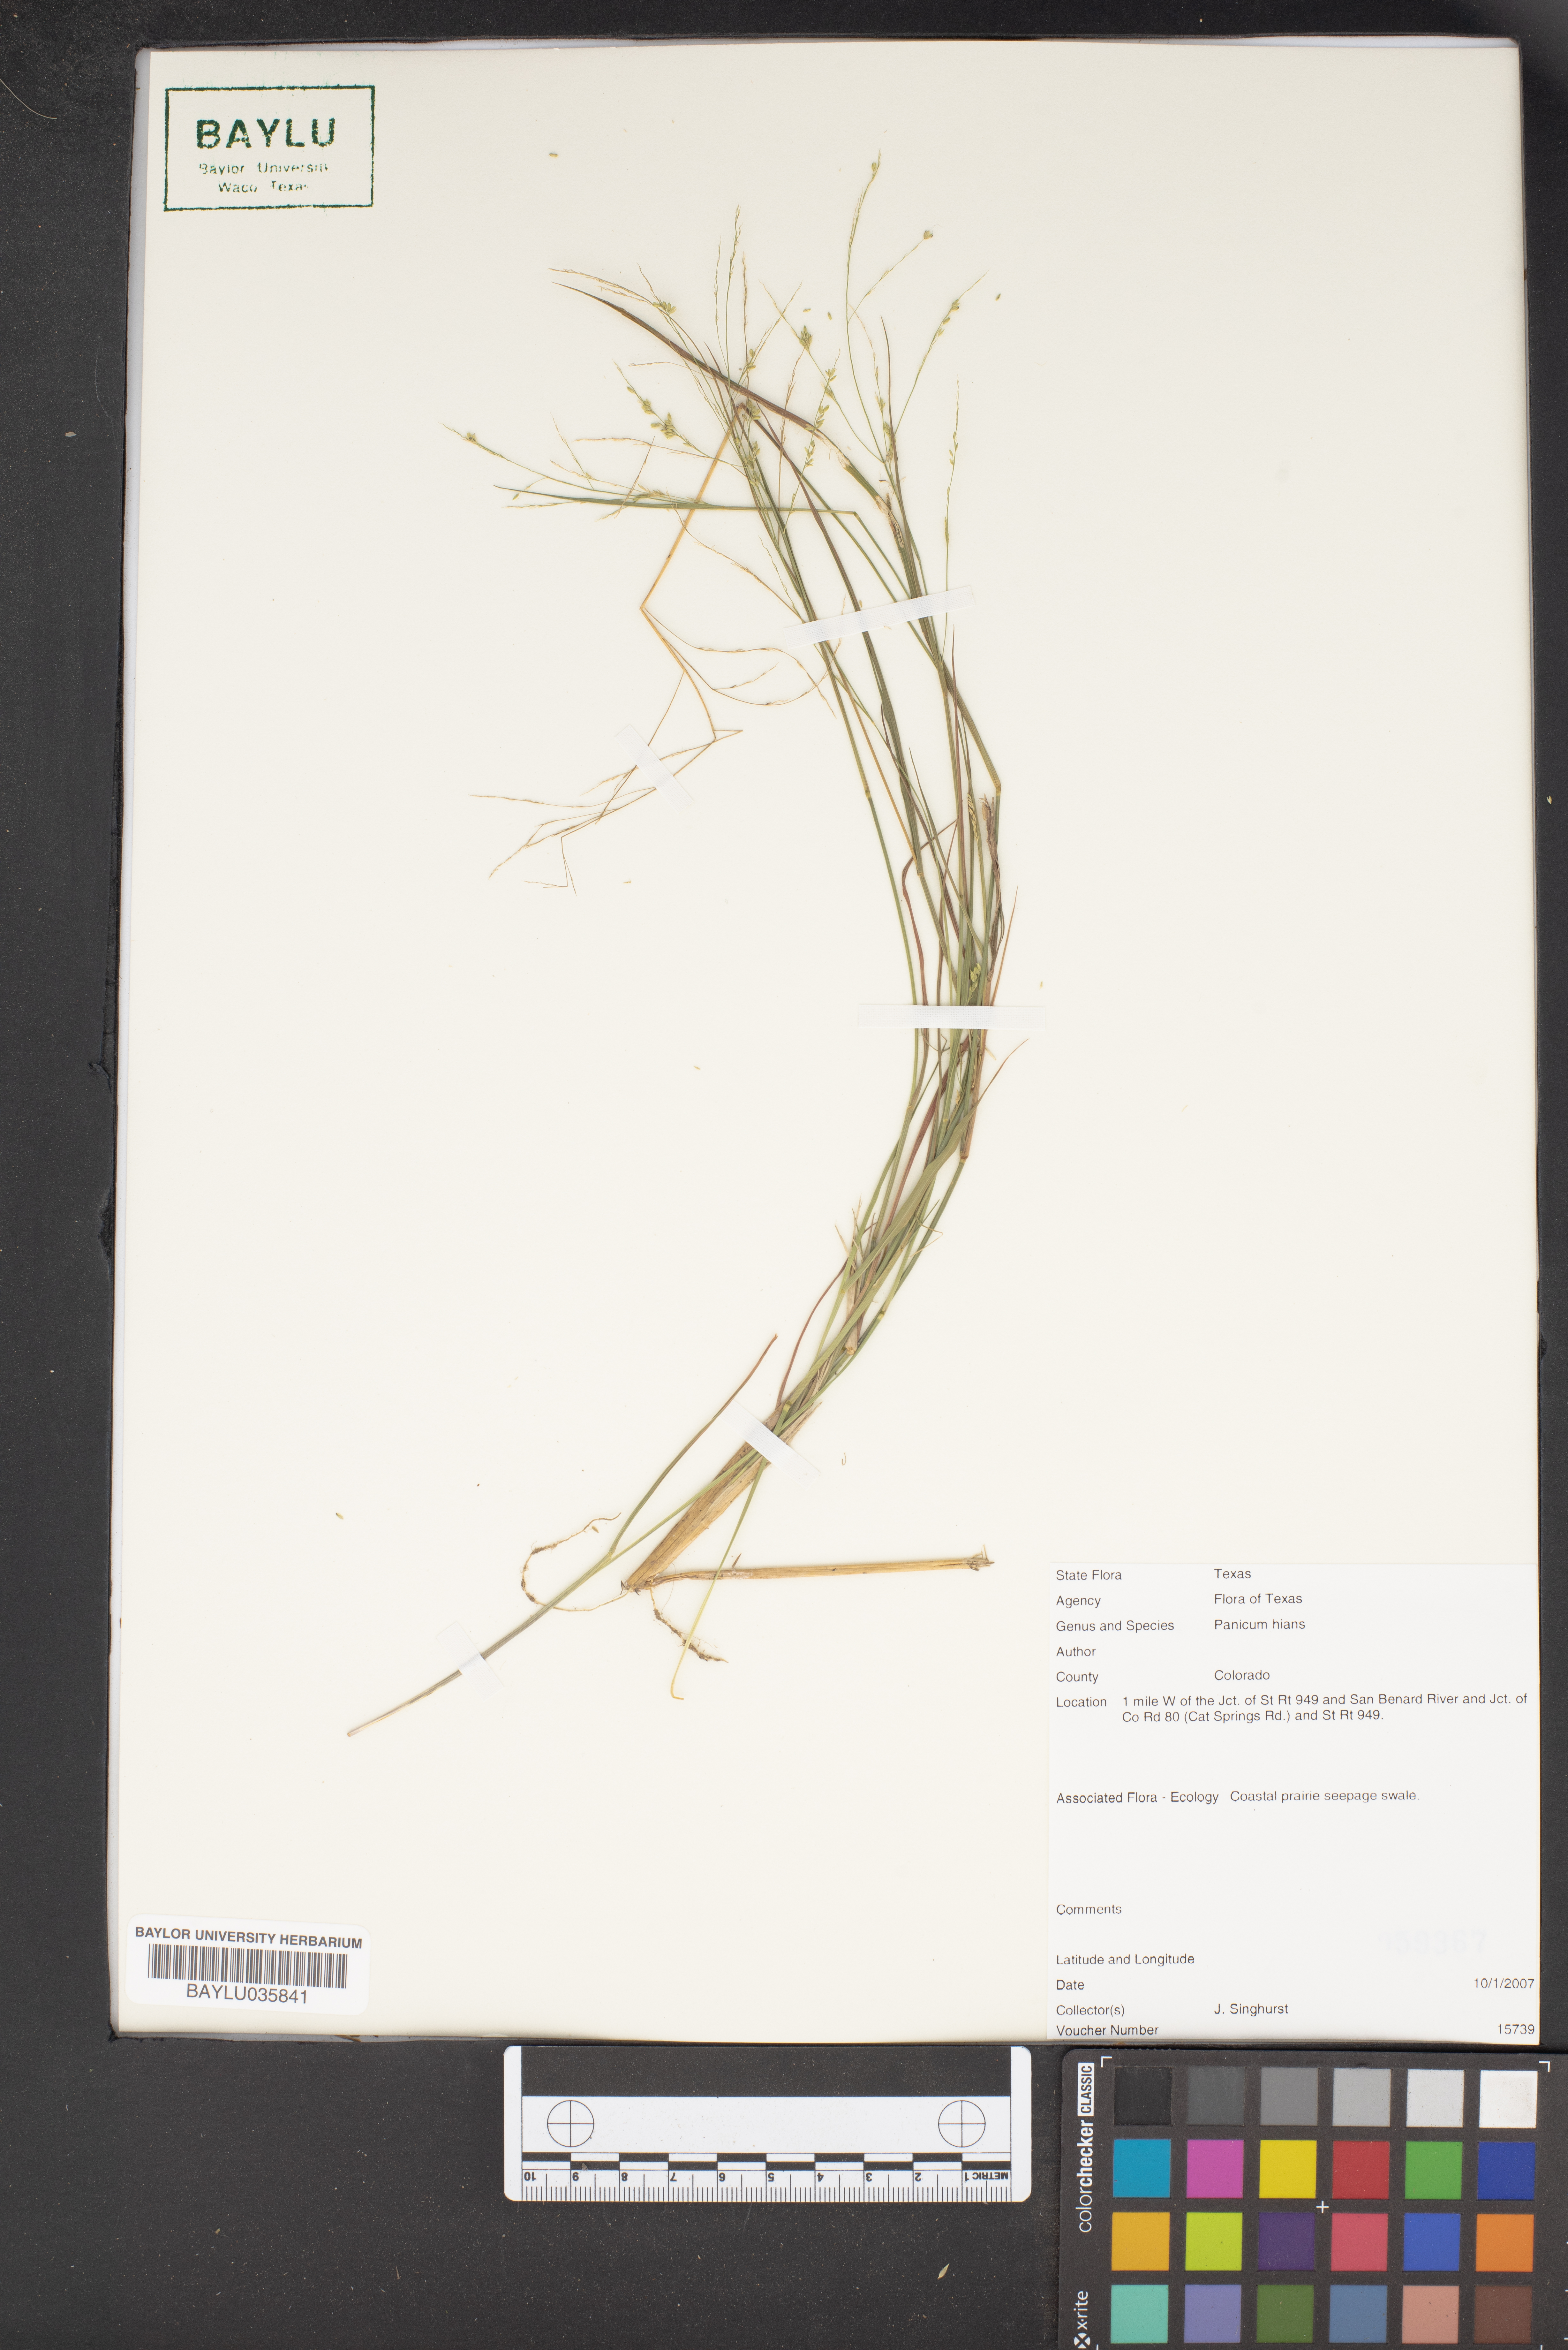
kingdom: Plantae
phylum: Tracheophyta
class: Liliopsida
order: Poales
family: Poaceae
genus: Coleataenia
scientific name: Coleataenia stenodes
